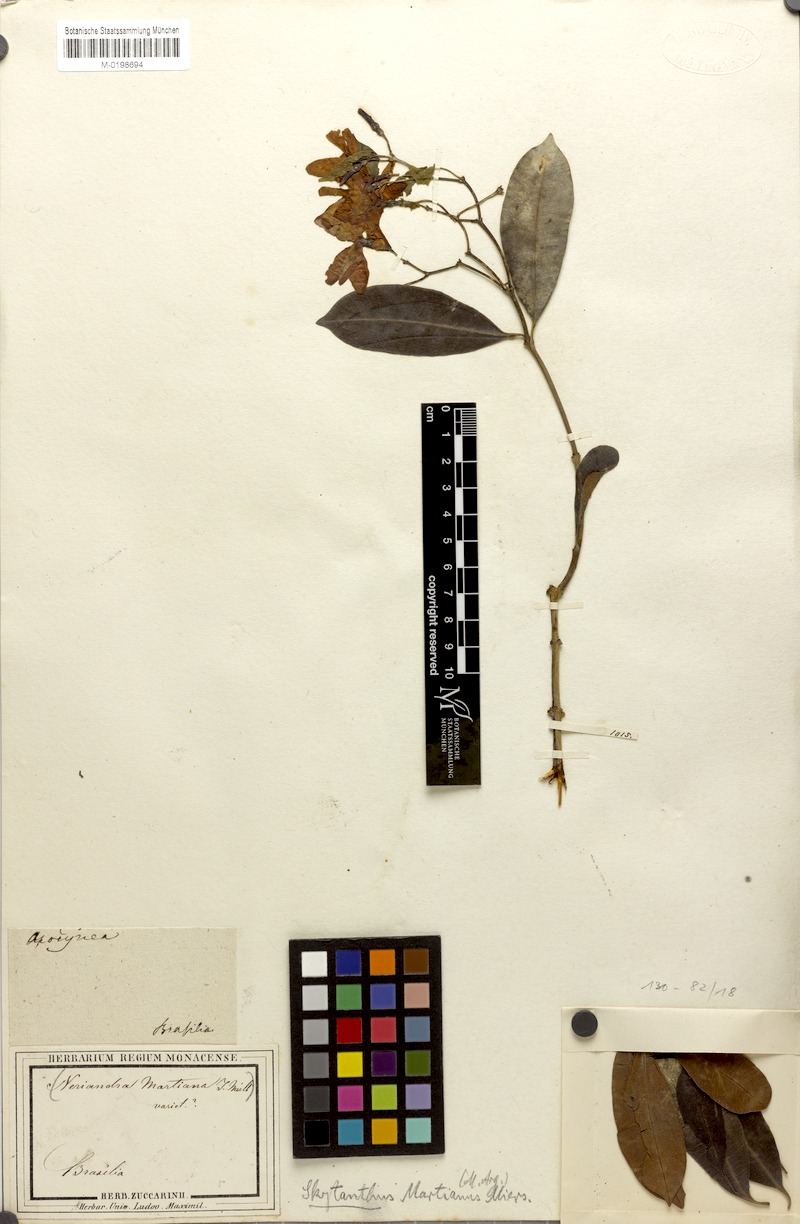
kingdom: Plantae
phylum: Tracheophyta
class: Magnoliopsida
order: Gentianales
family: Apocynaceae
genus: Skytanthus
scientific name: Skytanthus martianus
